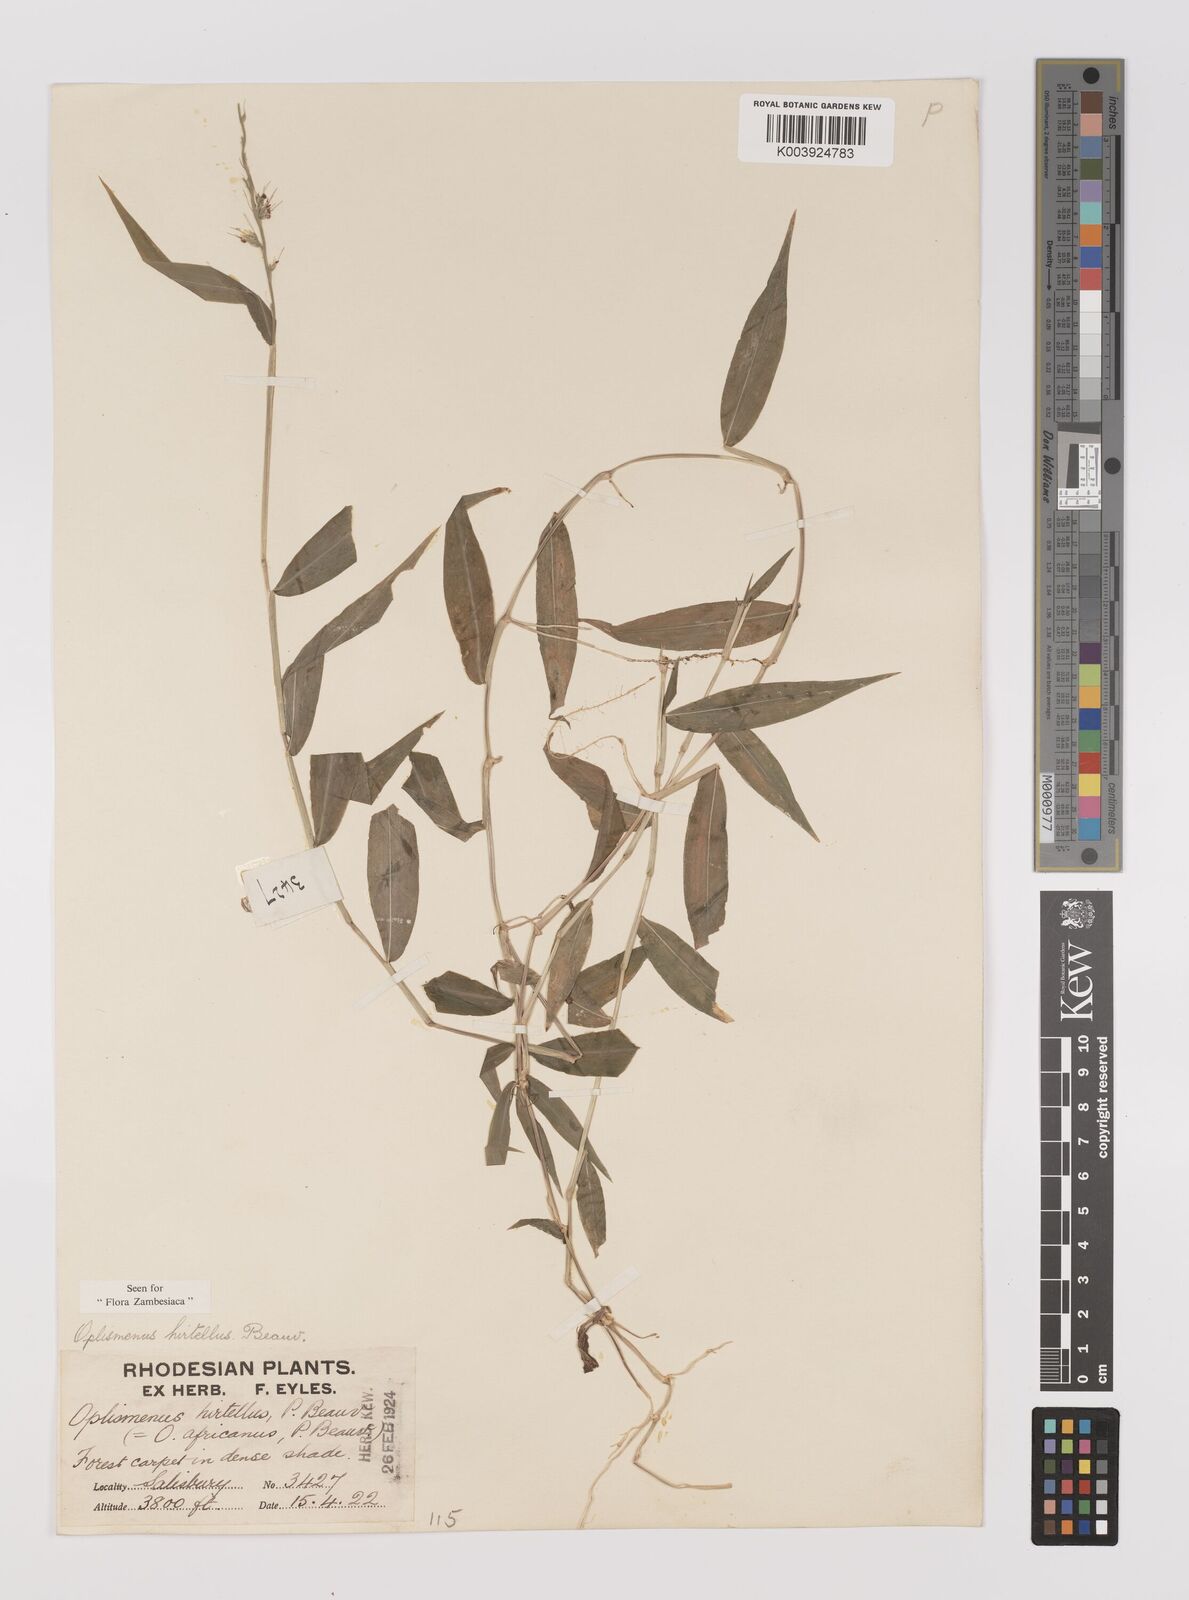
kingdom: Plantae
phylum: Tracheophyta
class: Liliopsida
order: Poales
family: Poaceae
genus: Oplismenus
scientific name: Oplismenus hirtellus
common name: Basketgrass
